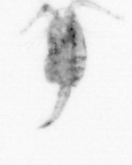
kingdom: Animalia
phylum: Arthropoda
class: Copepoda
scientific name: Copepoda
